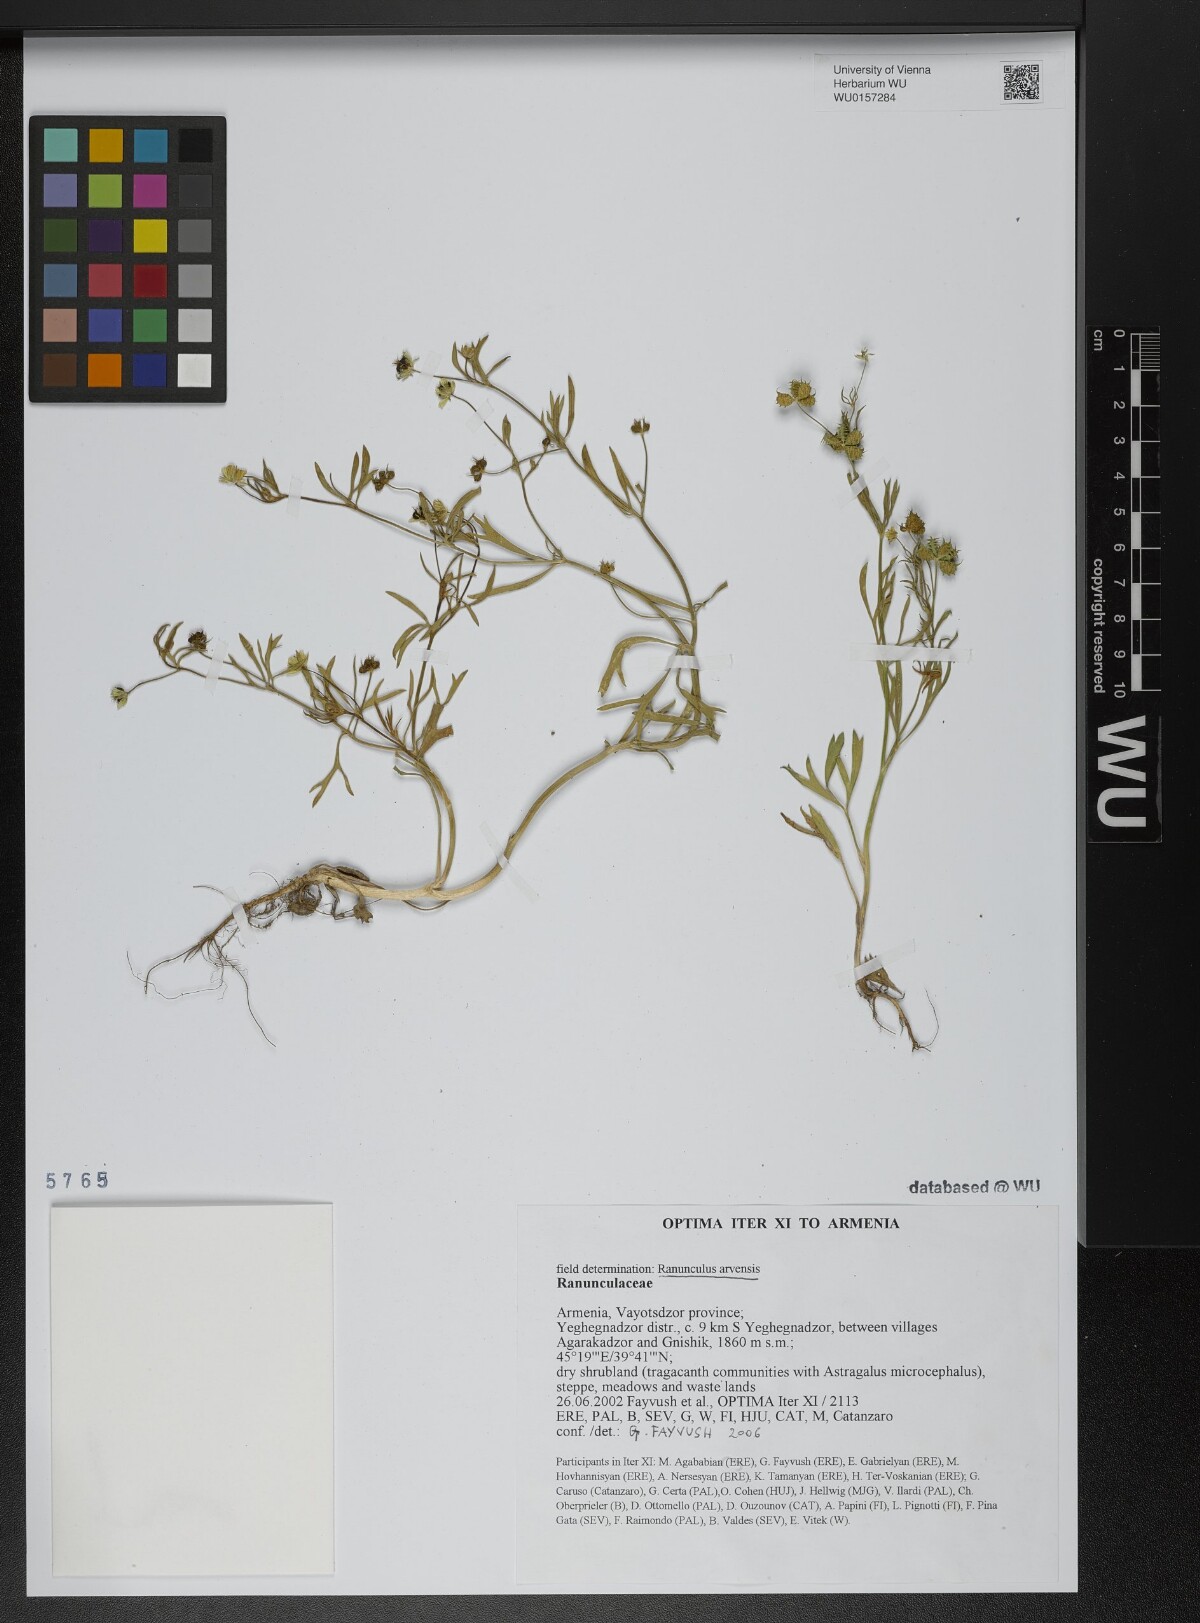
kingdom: Plantae
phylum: Tracheophyta
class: Magnoliopsida
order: Ranunculales
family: Ranunculaceae
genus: Ranunculus
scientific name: Ranunculus arvensis
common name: Corn buttercup
